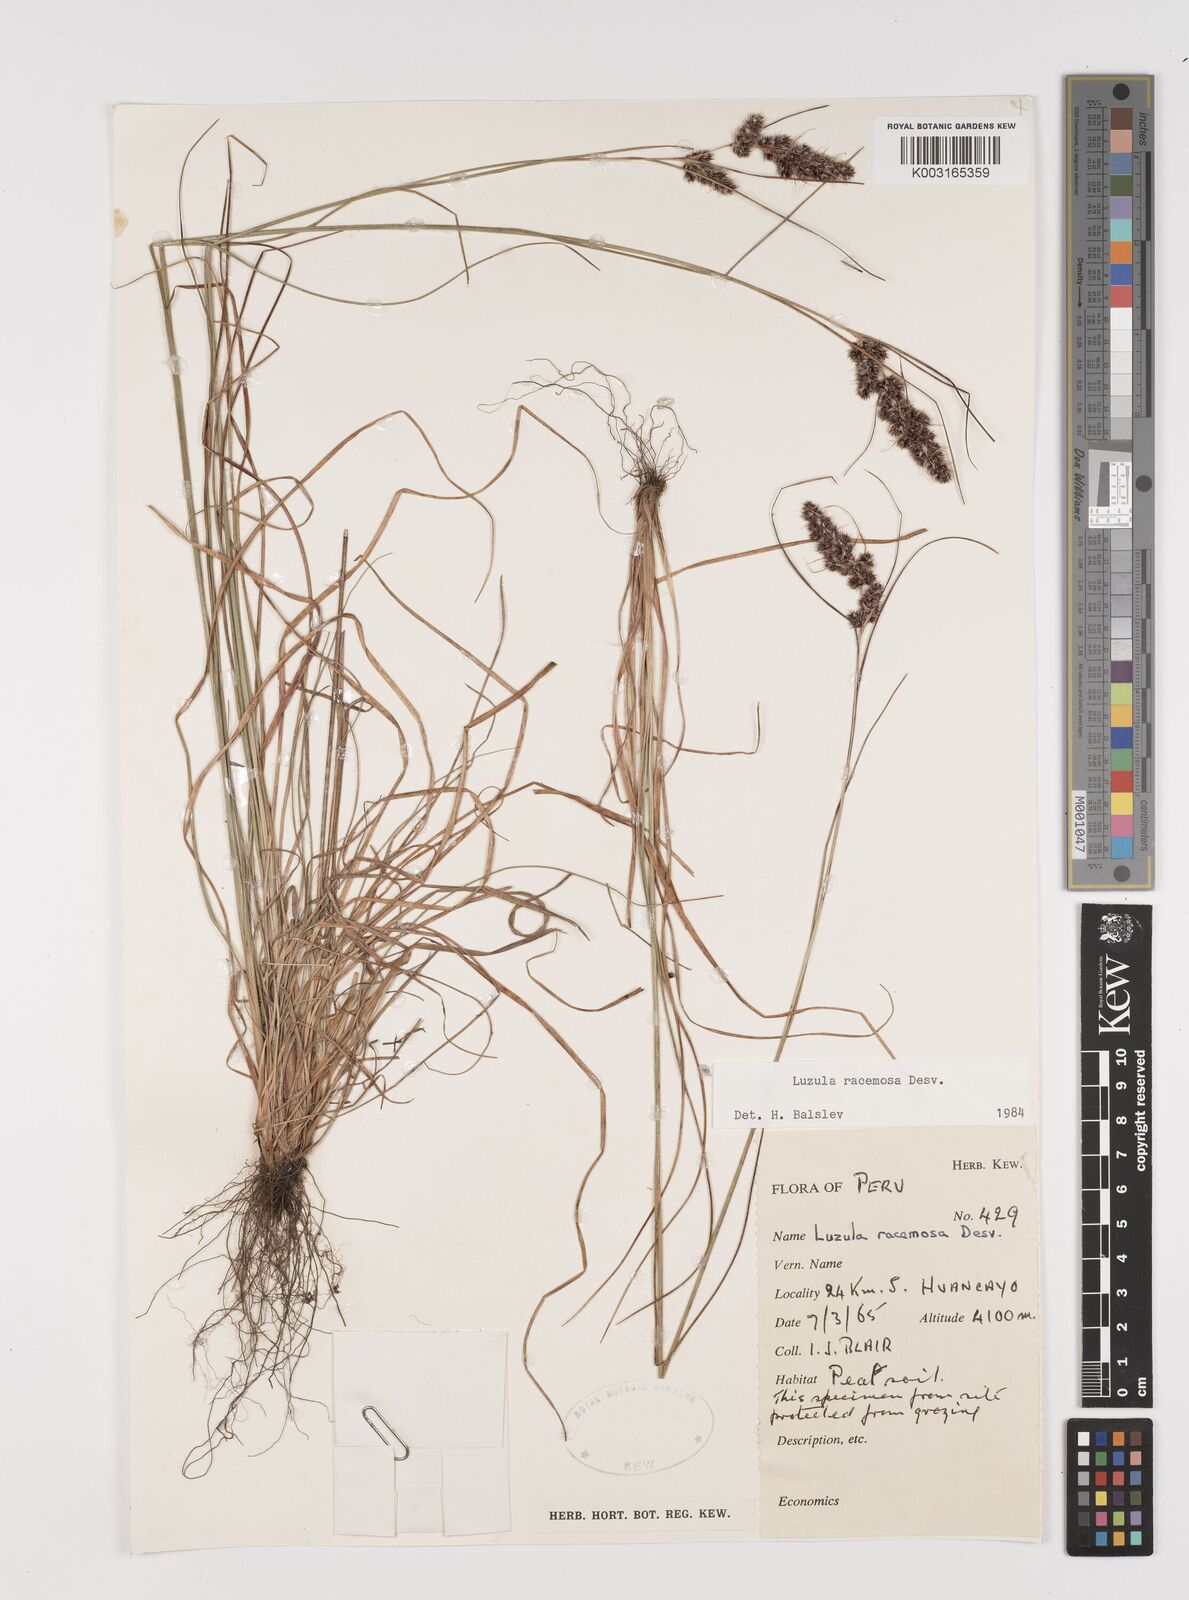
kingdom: Plantae
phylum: Tracheophyta
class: Liliopsida
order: Poales
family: Juncaceae
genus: Luzula
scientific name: Luzula racemosa
